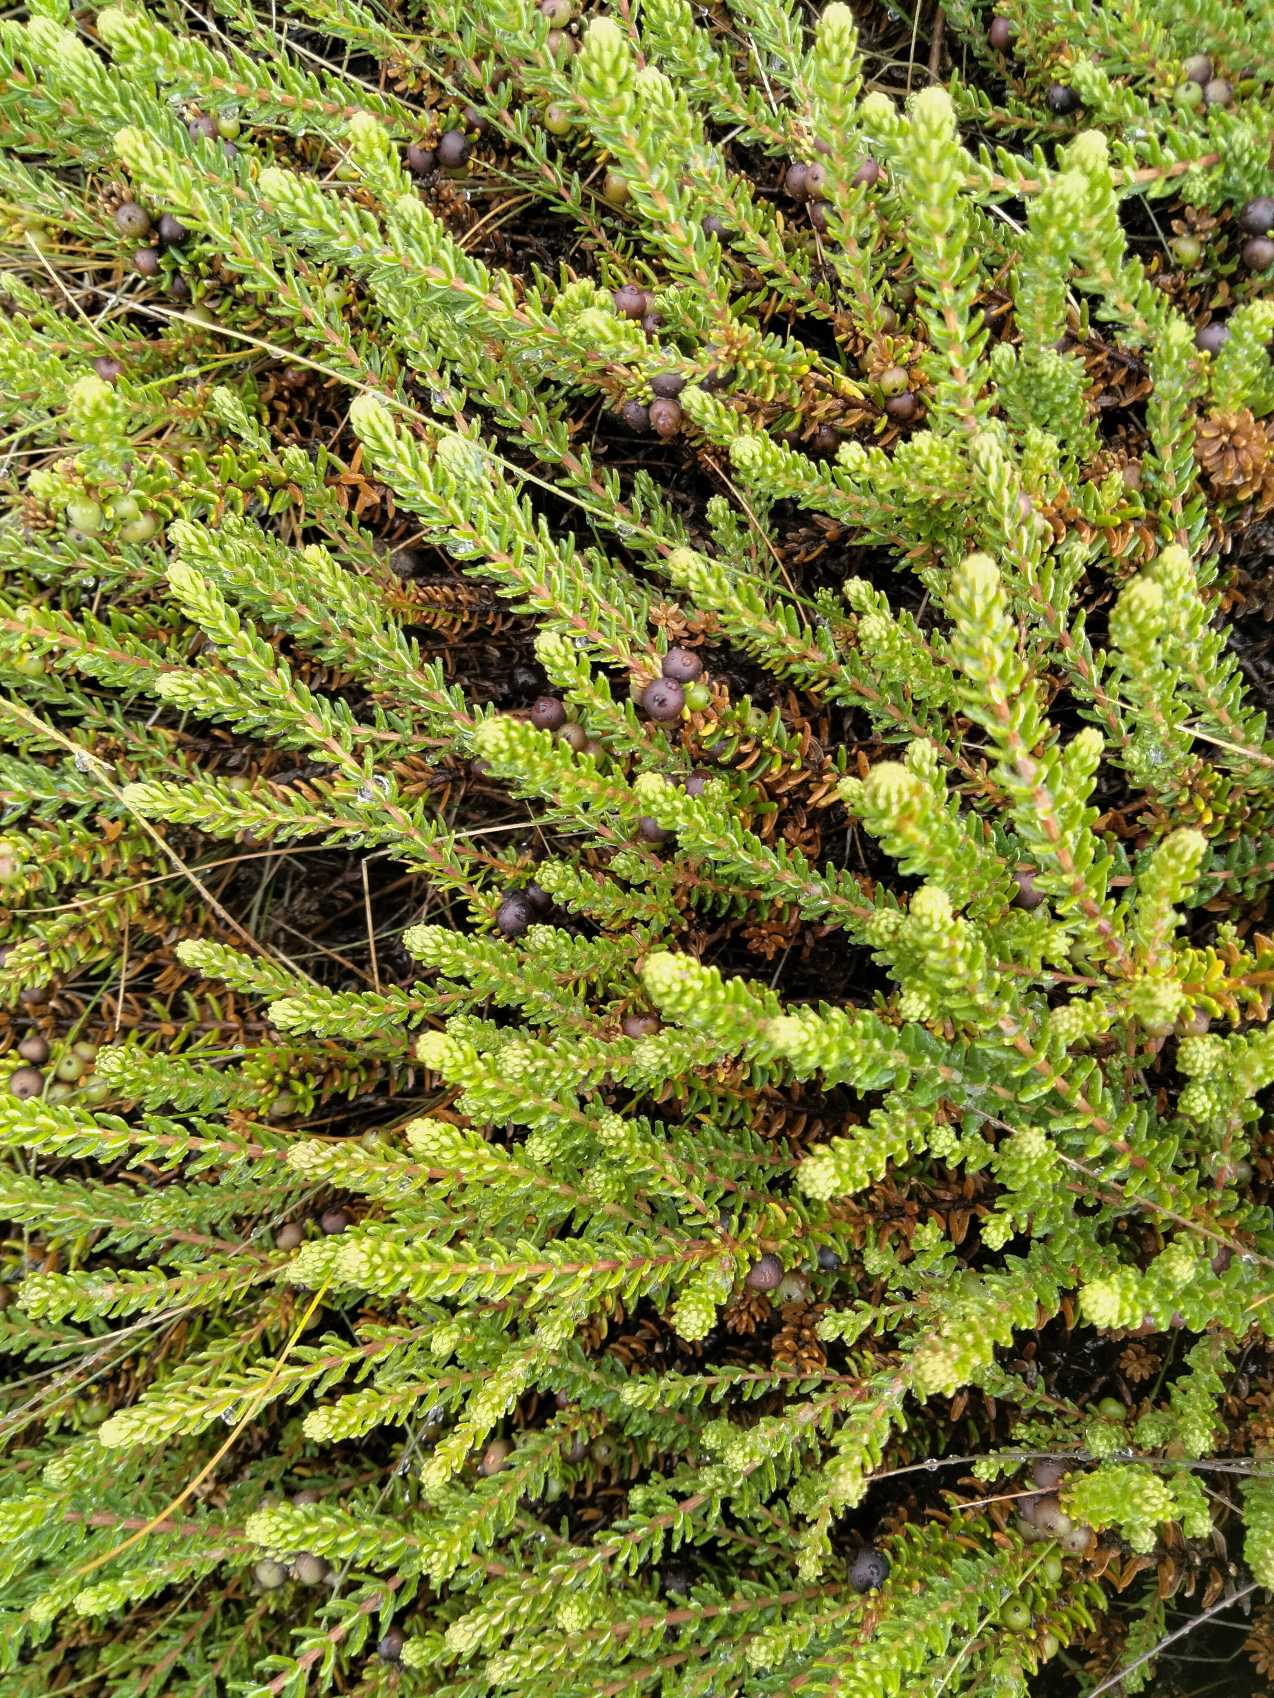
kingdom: Plantae
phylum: Tracheophyta
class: Magnoliopsida
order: Ericales
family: Ericaceae
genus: Empetrum
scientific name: Empetrum nigrum
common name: Revling
